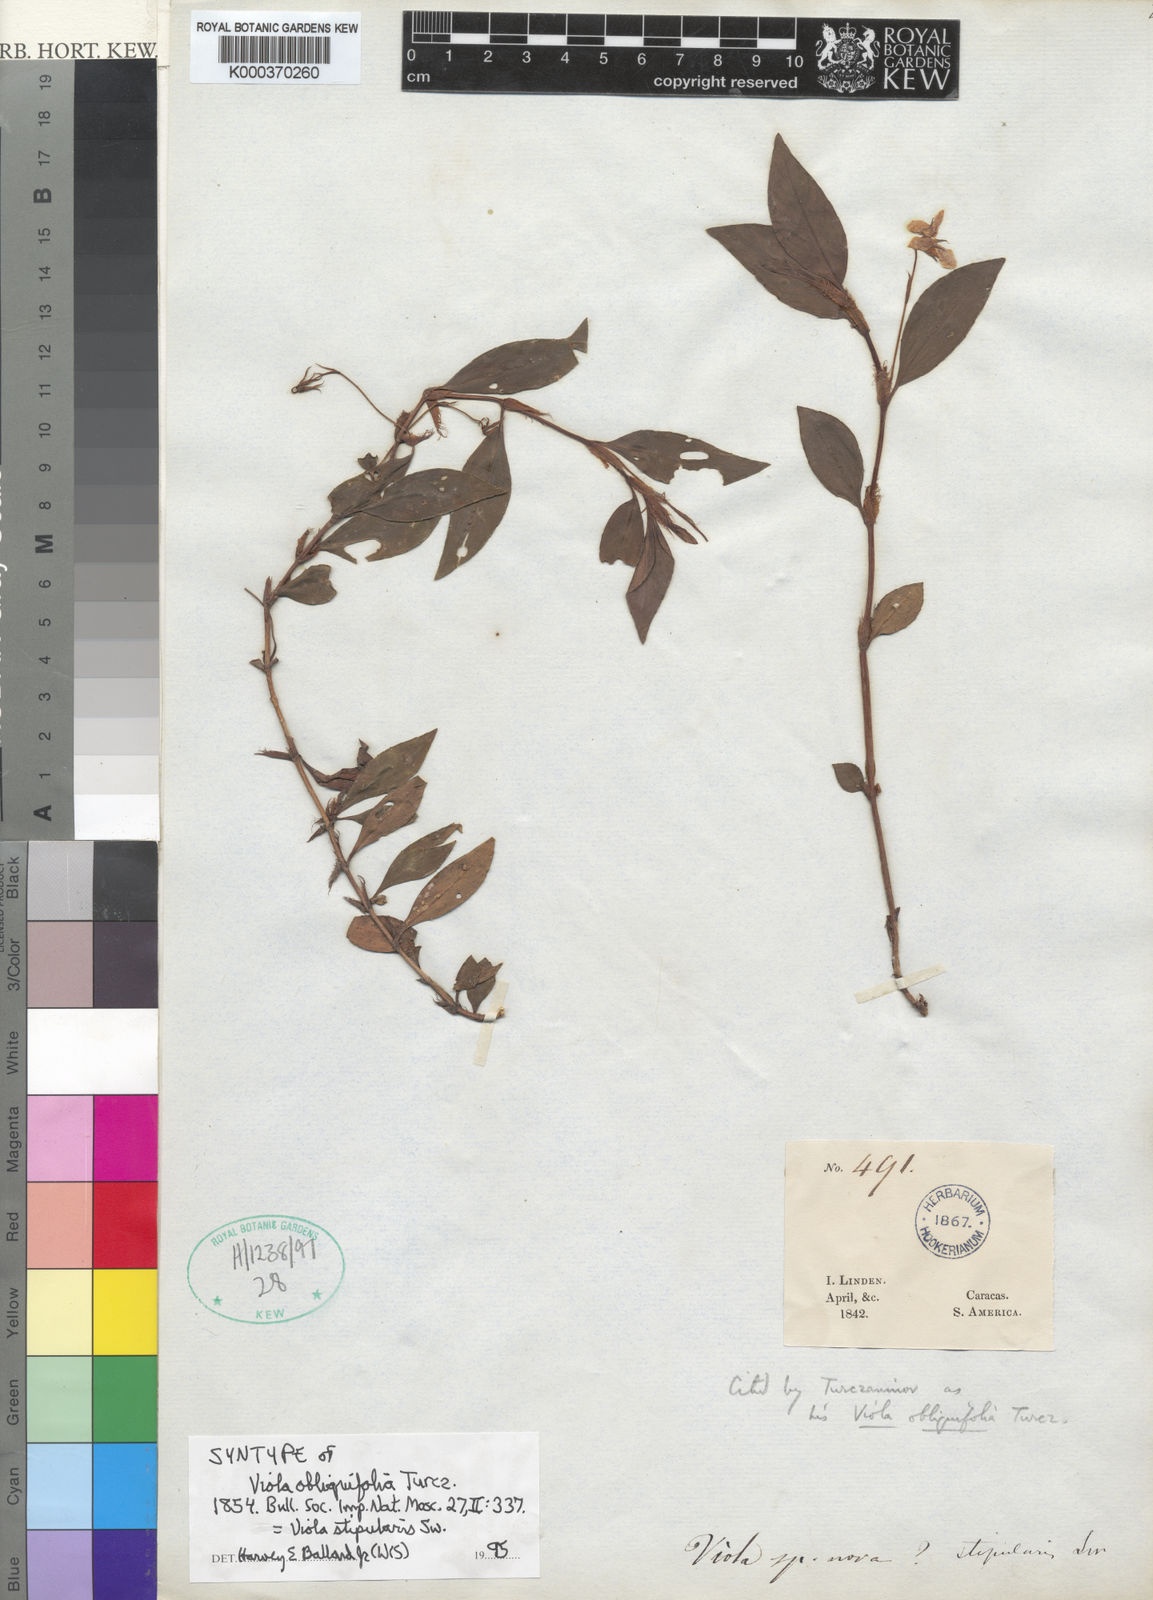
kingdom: Plantae
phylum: Tracheophyta
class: Magnoliopsida
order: Malpighiales
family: Violaceae
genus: Viola
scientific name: Viola scandens
